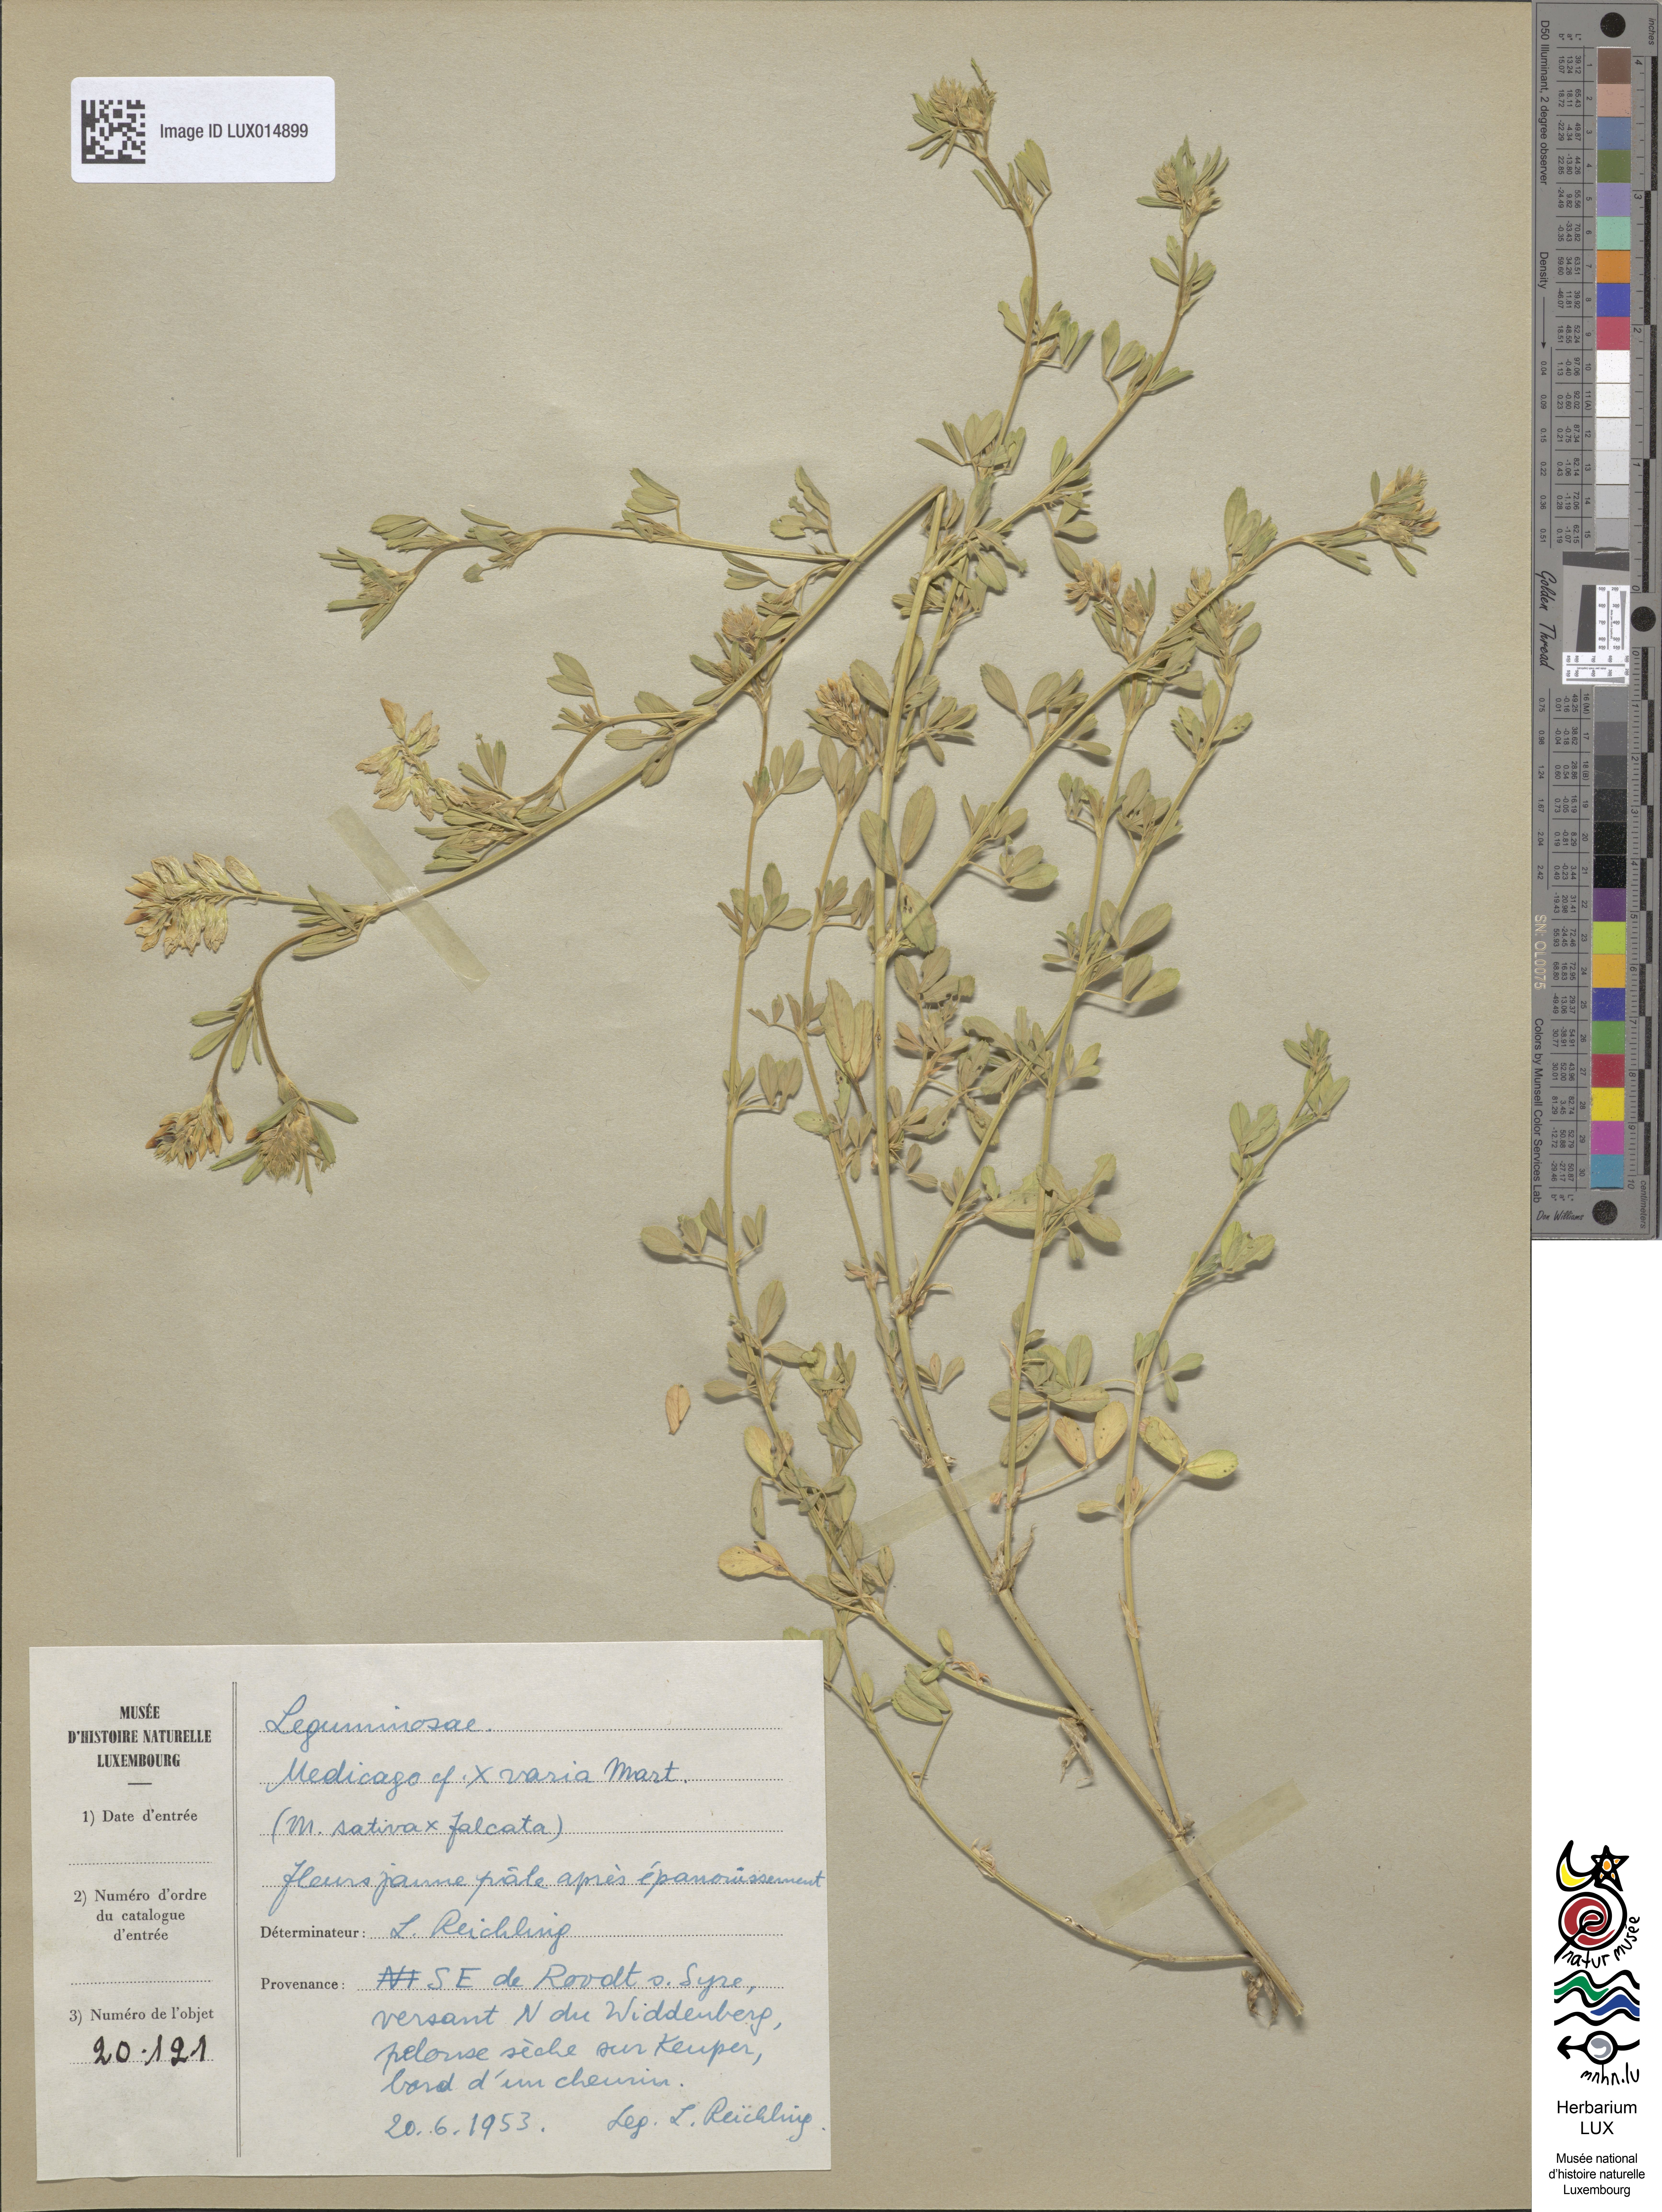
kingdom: Plantae
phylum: Tracheophyta
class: Magnoliopsida
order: Fabales
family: Fabaceae
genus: Medicago
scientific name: Medicago varia
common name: Sand lucerne
